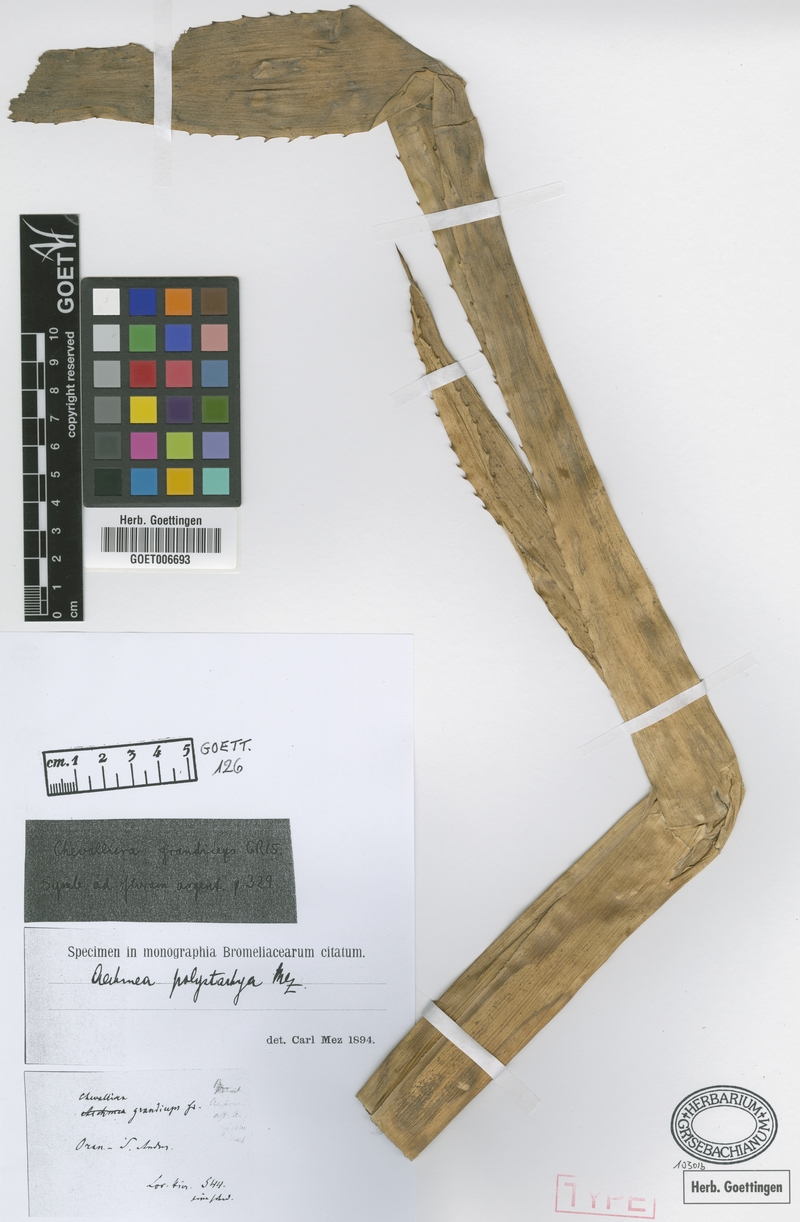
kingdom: Plantae
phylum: Tracheophyta
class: Liliopsida
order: Poales
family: Bromeliaceae
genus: Aechmea
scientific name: Aechmea distichantha
